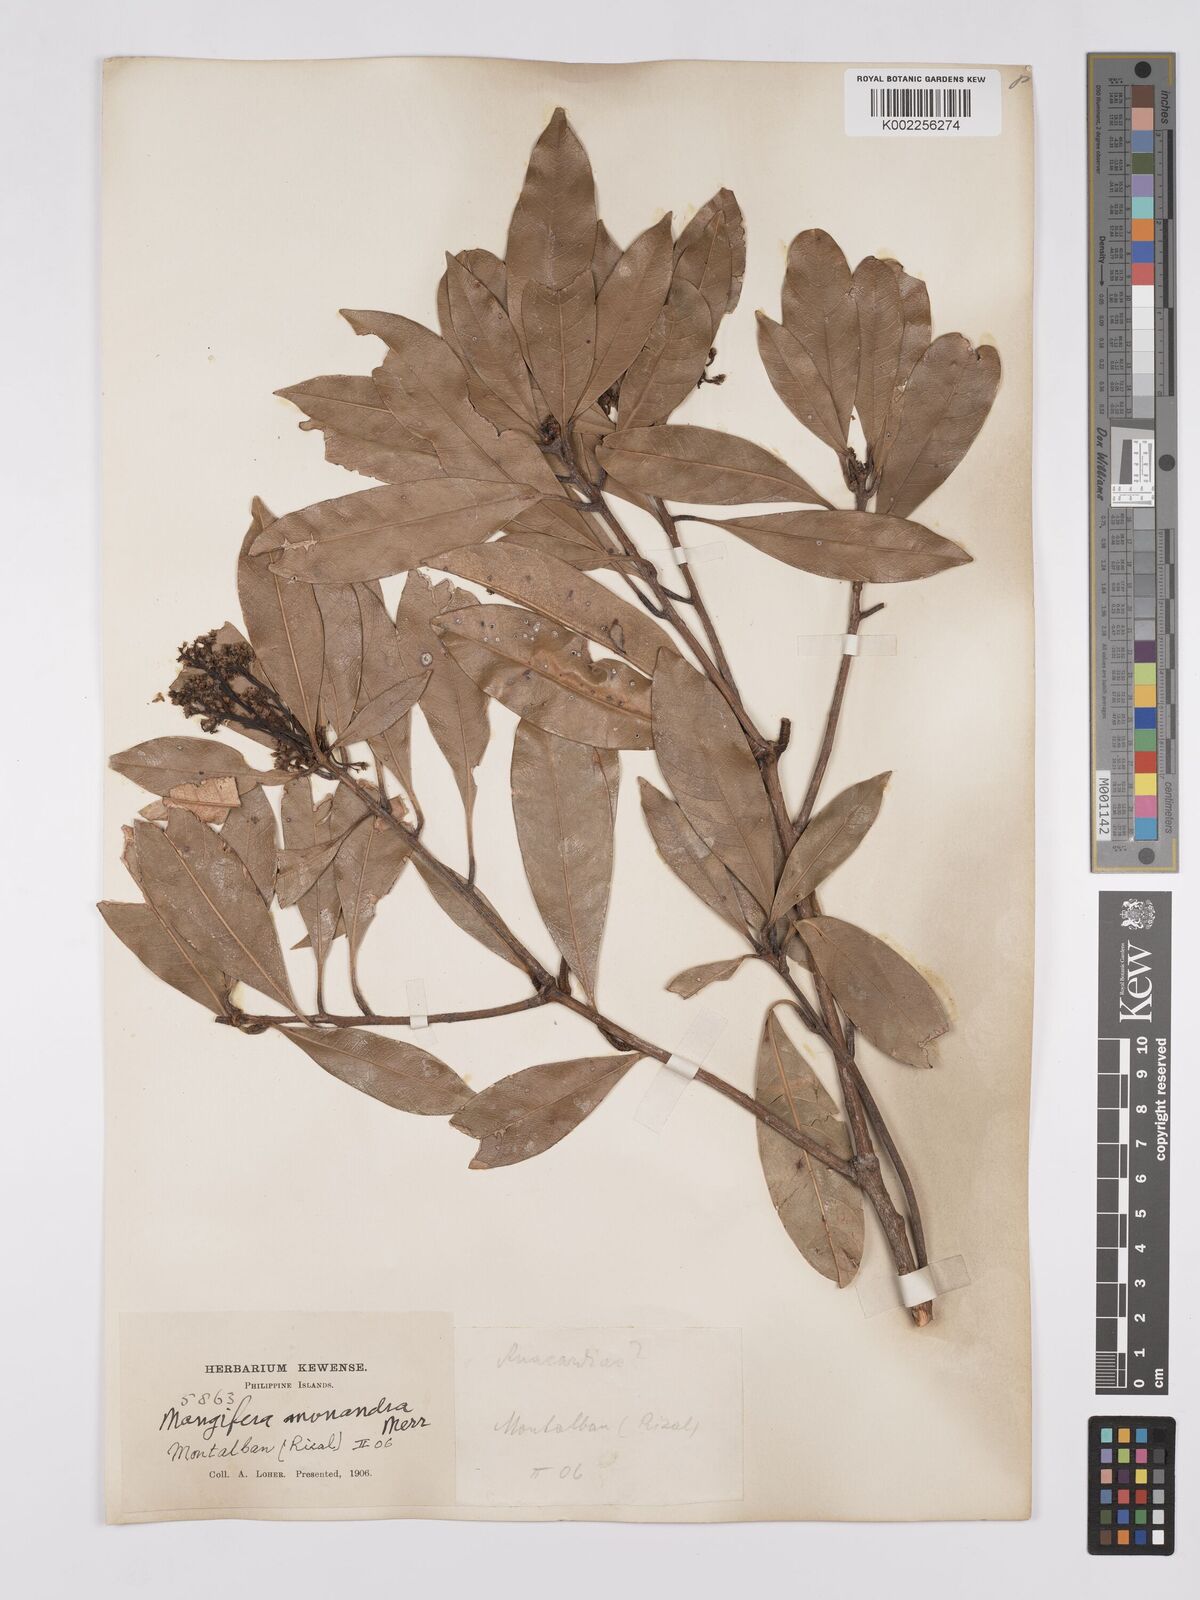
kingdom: Plantae
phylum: Tracheophyta
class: Magnoliopsida
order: Sapindales
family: Anacardiaceae
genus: Mangifera
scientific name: Mangifera monandra
